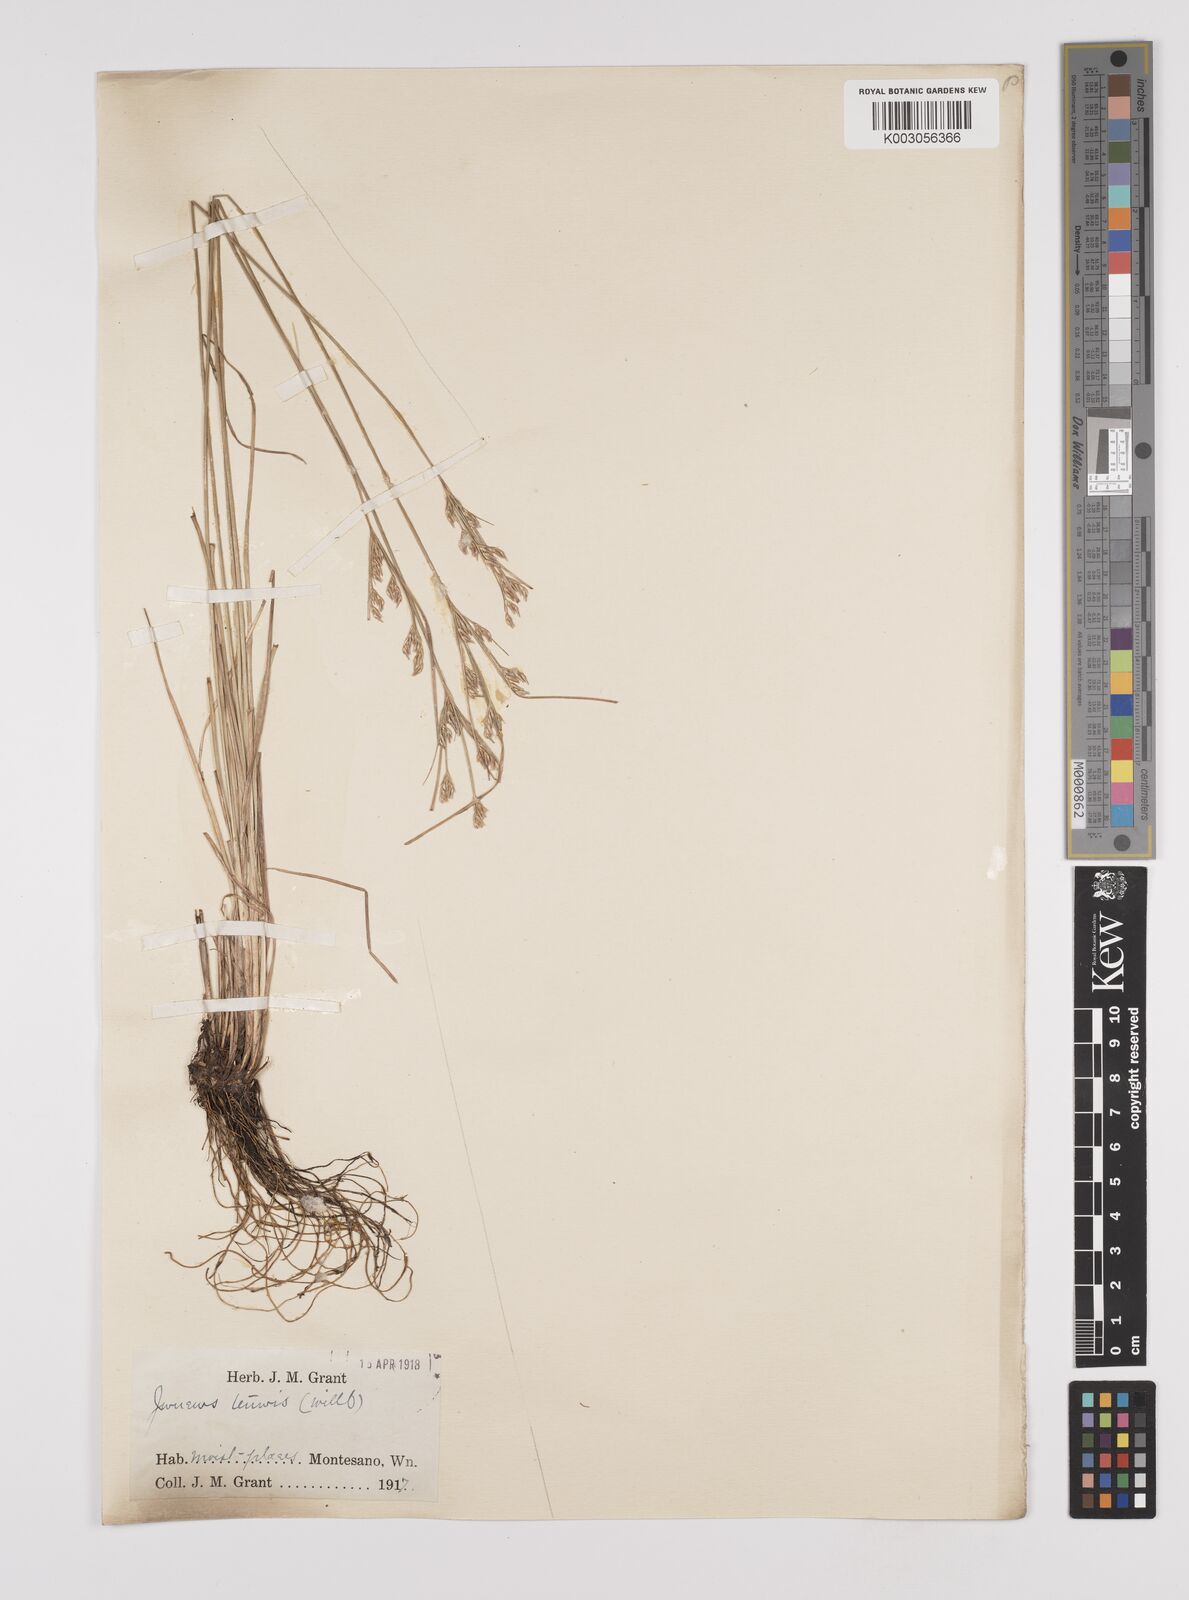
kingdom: Plantae
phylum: Tracheophyta
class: Liliopsida
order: Poales
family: Juncaceae
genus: Juncus
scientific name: Juncus tenuis
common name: Slender rush
